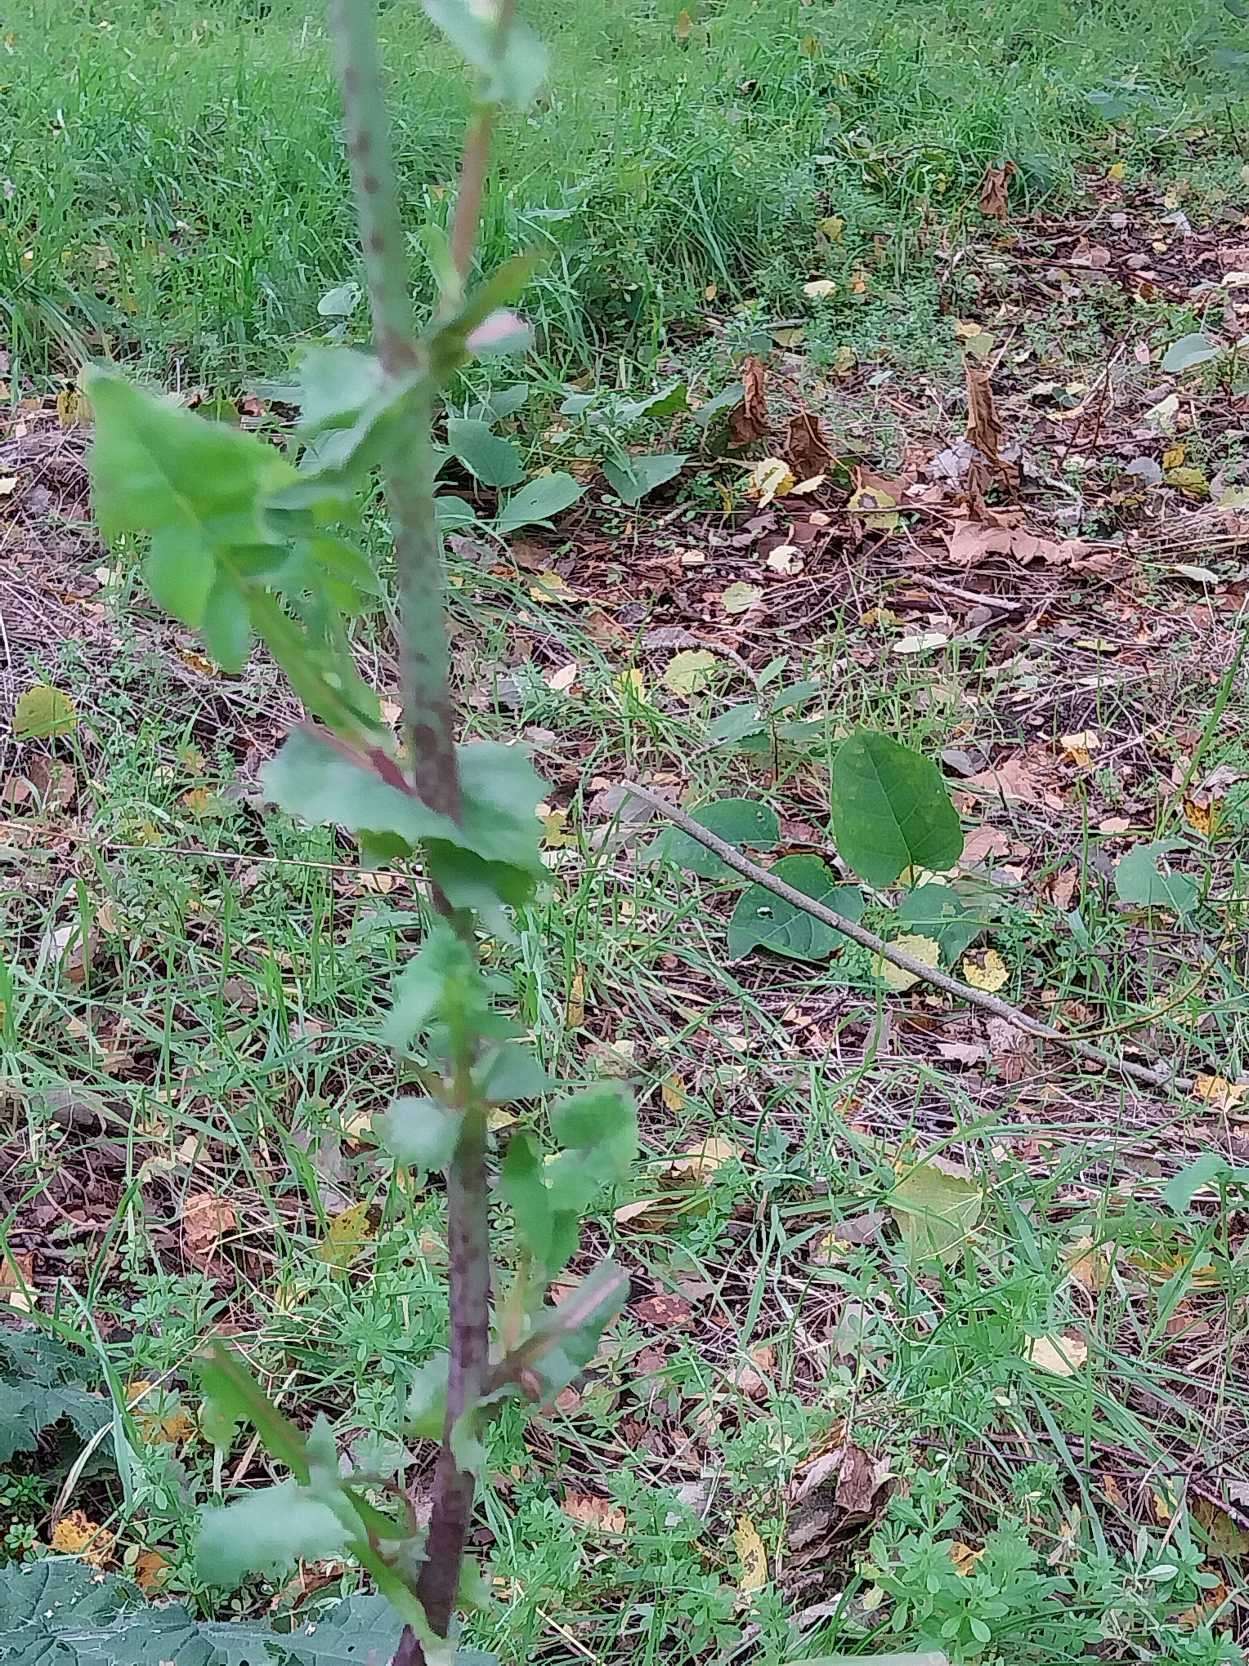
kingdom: Plantae
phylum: Tracheophyta
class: Magnoliopsida
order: Asterales
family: Asteraceae
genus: Sonchus
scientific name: Sonchus oleraceus
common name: Almindelig svinemælk
